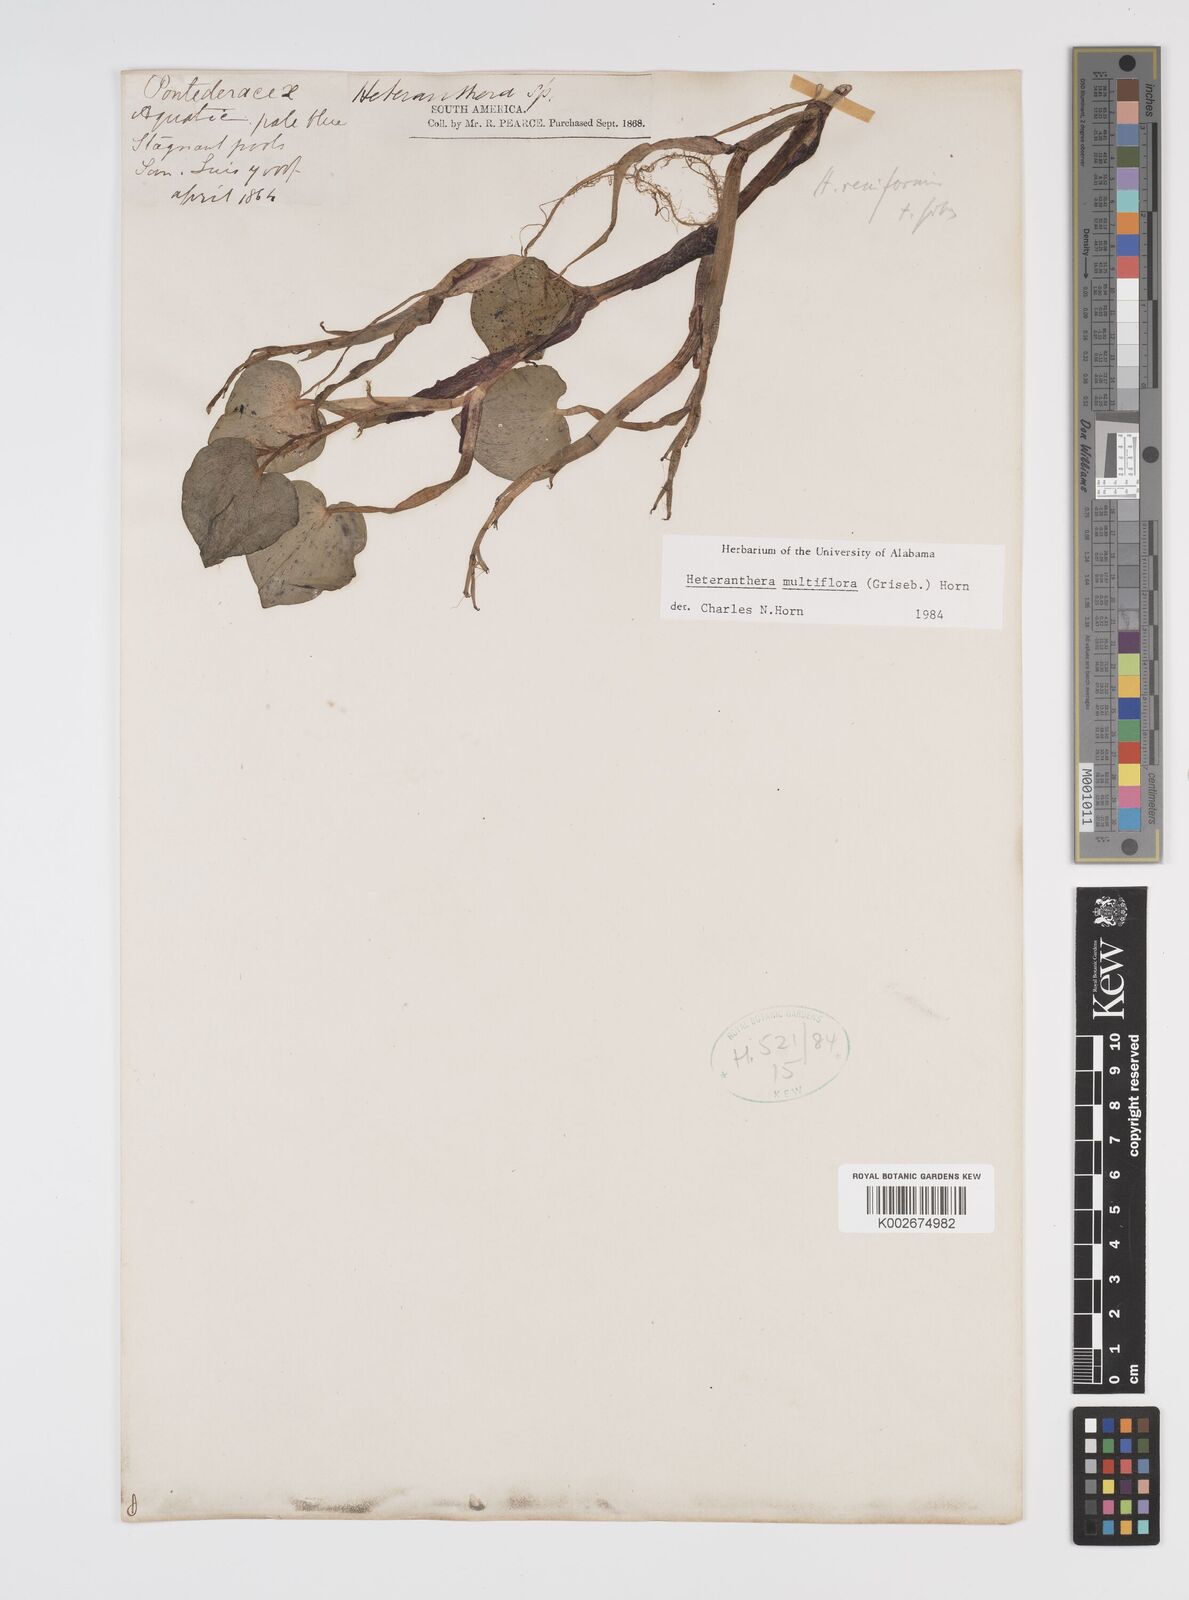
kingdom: Plantae
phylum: Tracheophyta
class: Liliopsida
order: Commelinales
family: Pontederiaceae
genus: Heteranthera
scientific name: Heteranthera multiflora
